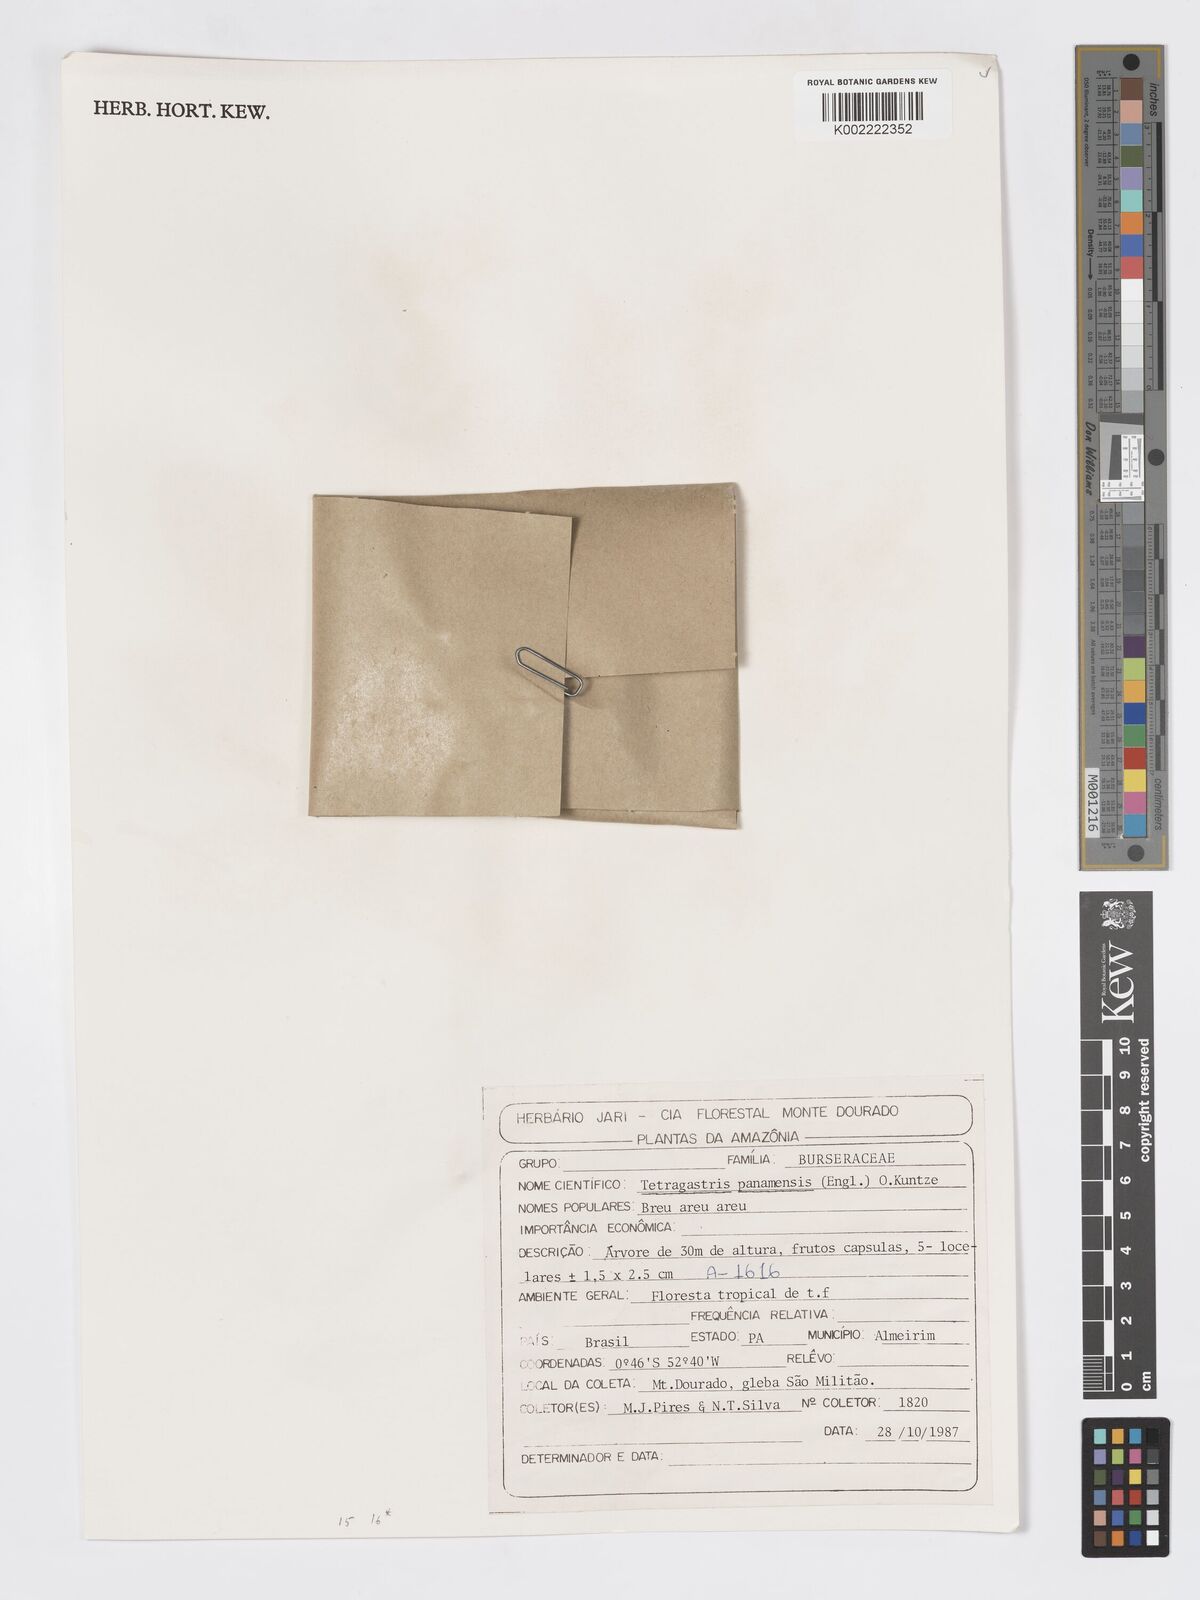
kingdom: Plantae
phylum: Tracheophyta
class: Magnoliopsida
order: Sapindales
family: Burseraceae
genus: Tetragastris
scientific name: Tetragastris panamensis
